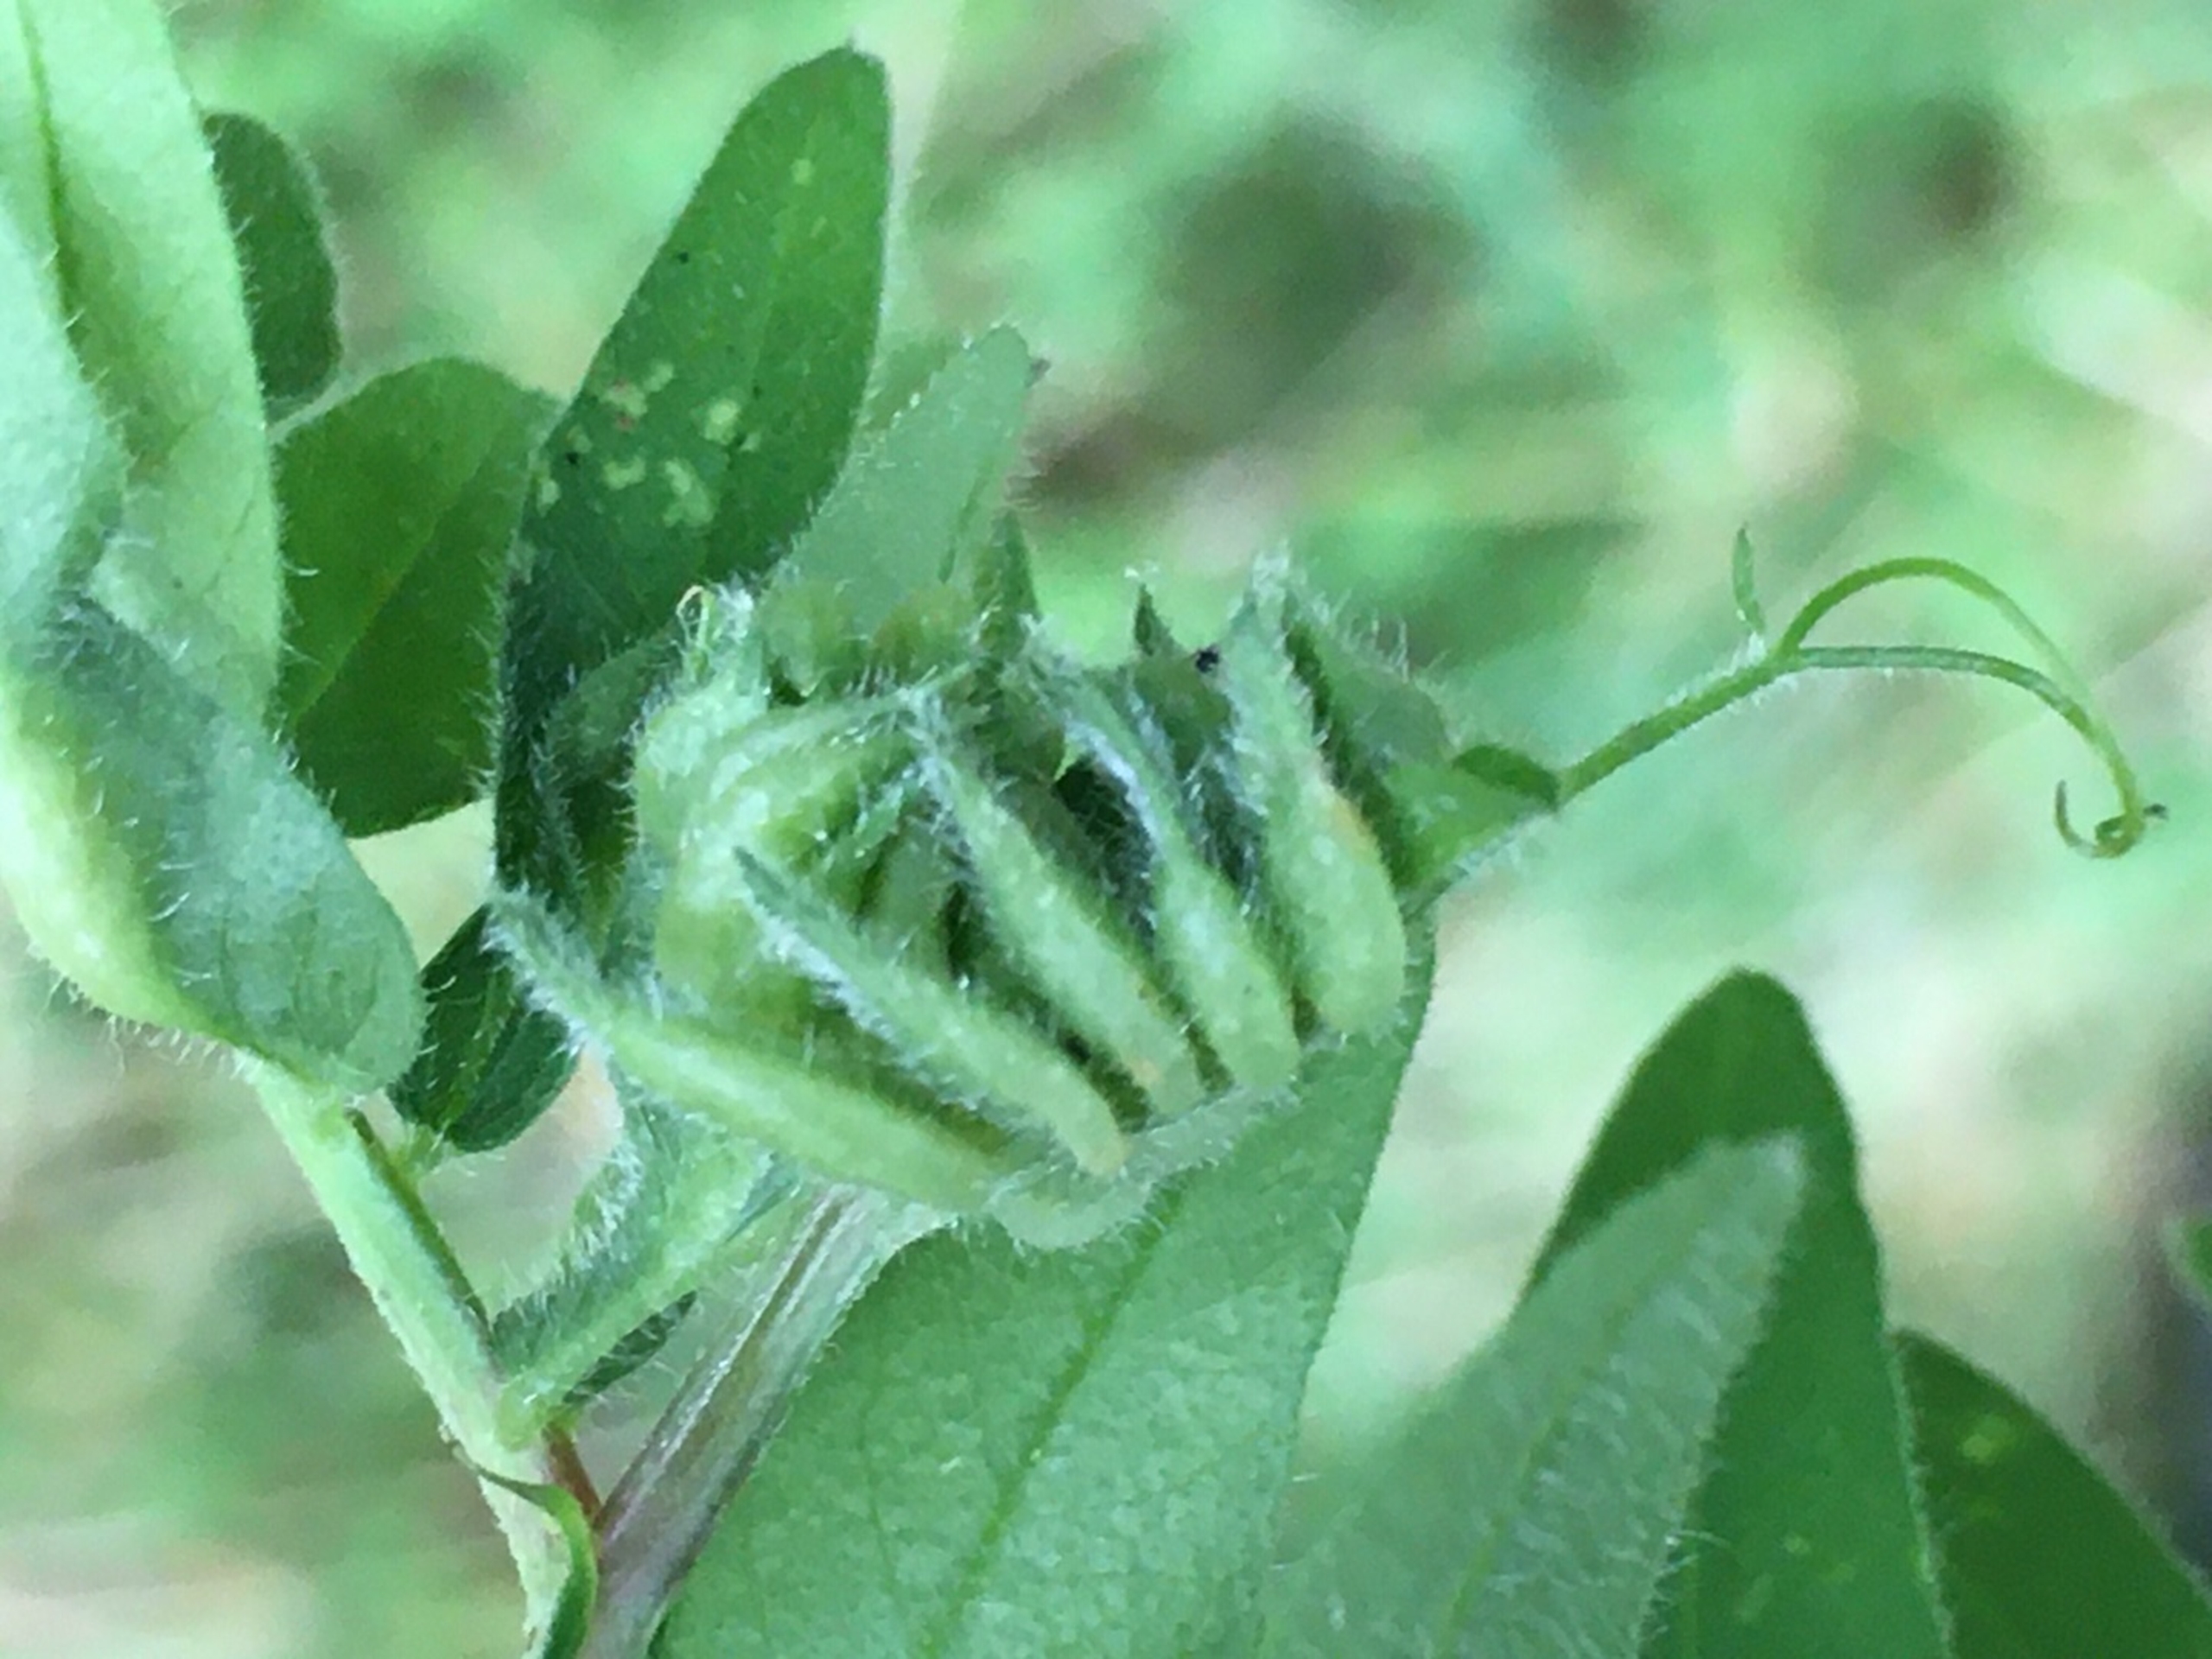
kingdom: Animalia
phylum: Arthropoda
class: Insecta
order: Diptera
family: Cecidomyiidae
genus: Dasineura
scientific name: Dasineura viciae
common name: Gærdevikkegalmyg
